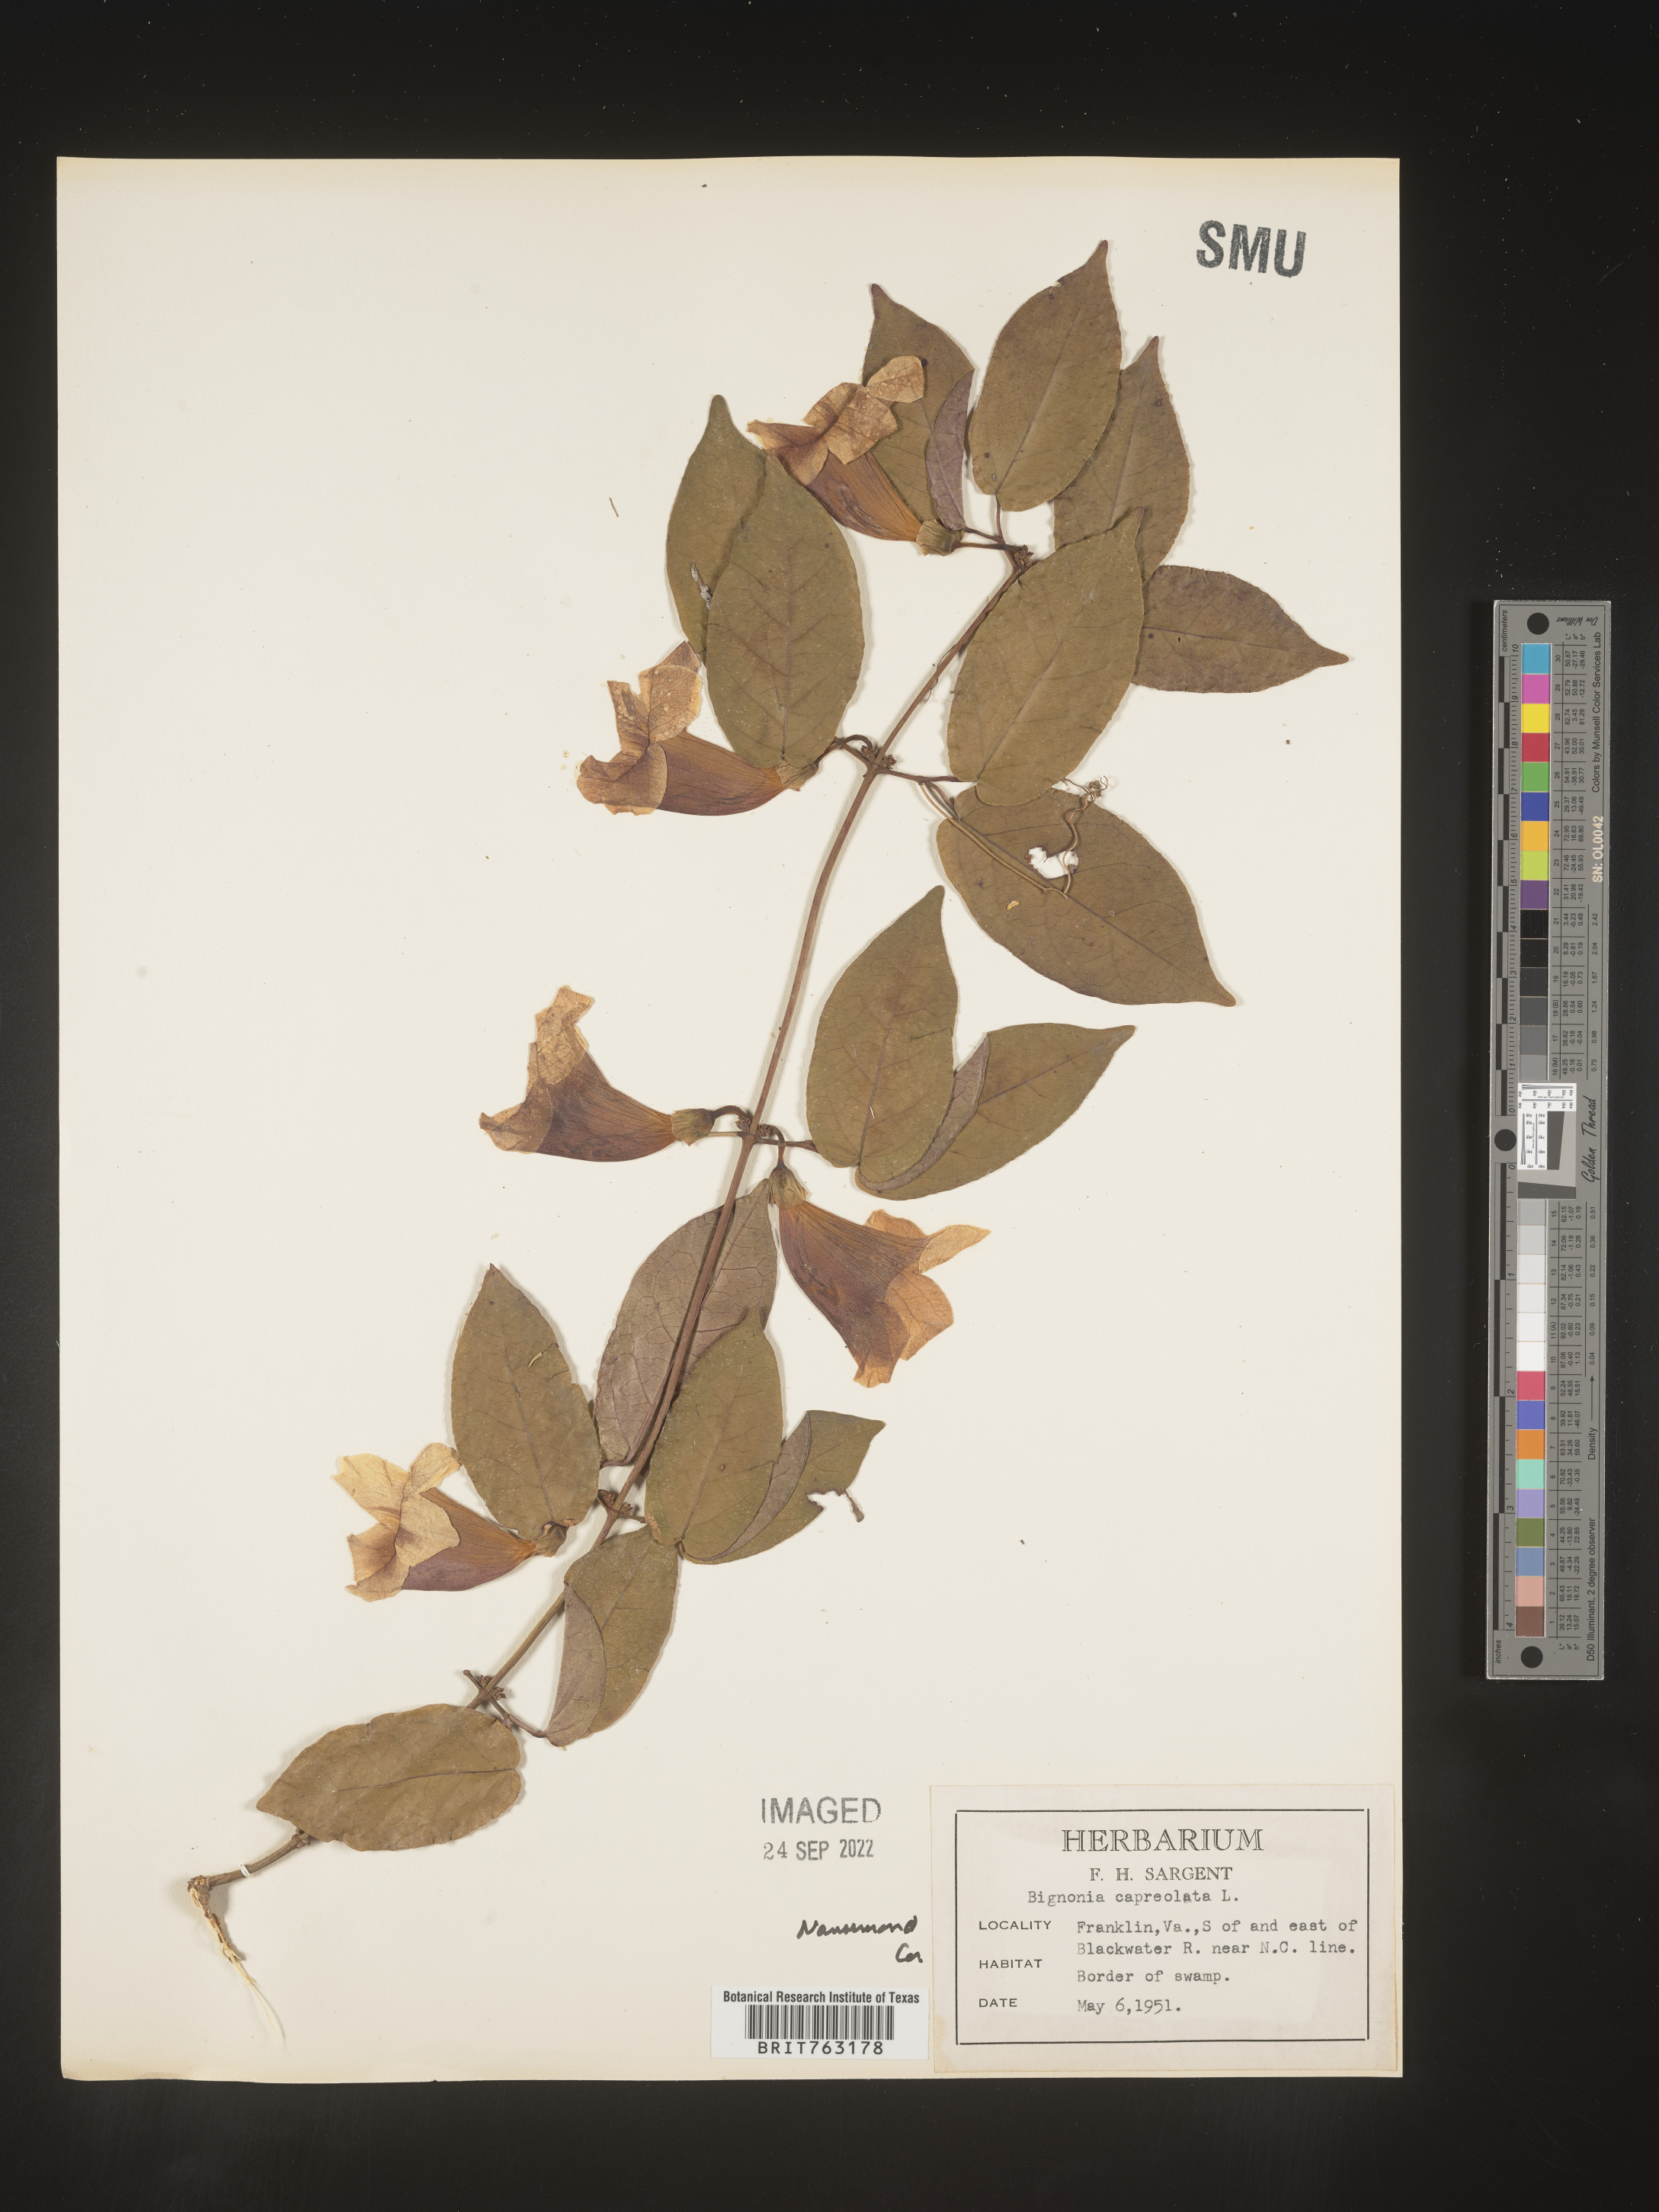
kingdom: Plantae
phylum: Tracheophyta
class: Magnoliopsida
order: Lamiales
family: Bignoniaceae
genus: Bignonia
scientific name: Bignonia capreolata
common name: Crossvine
